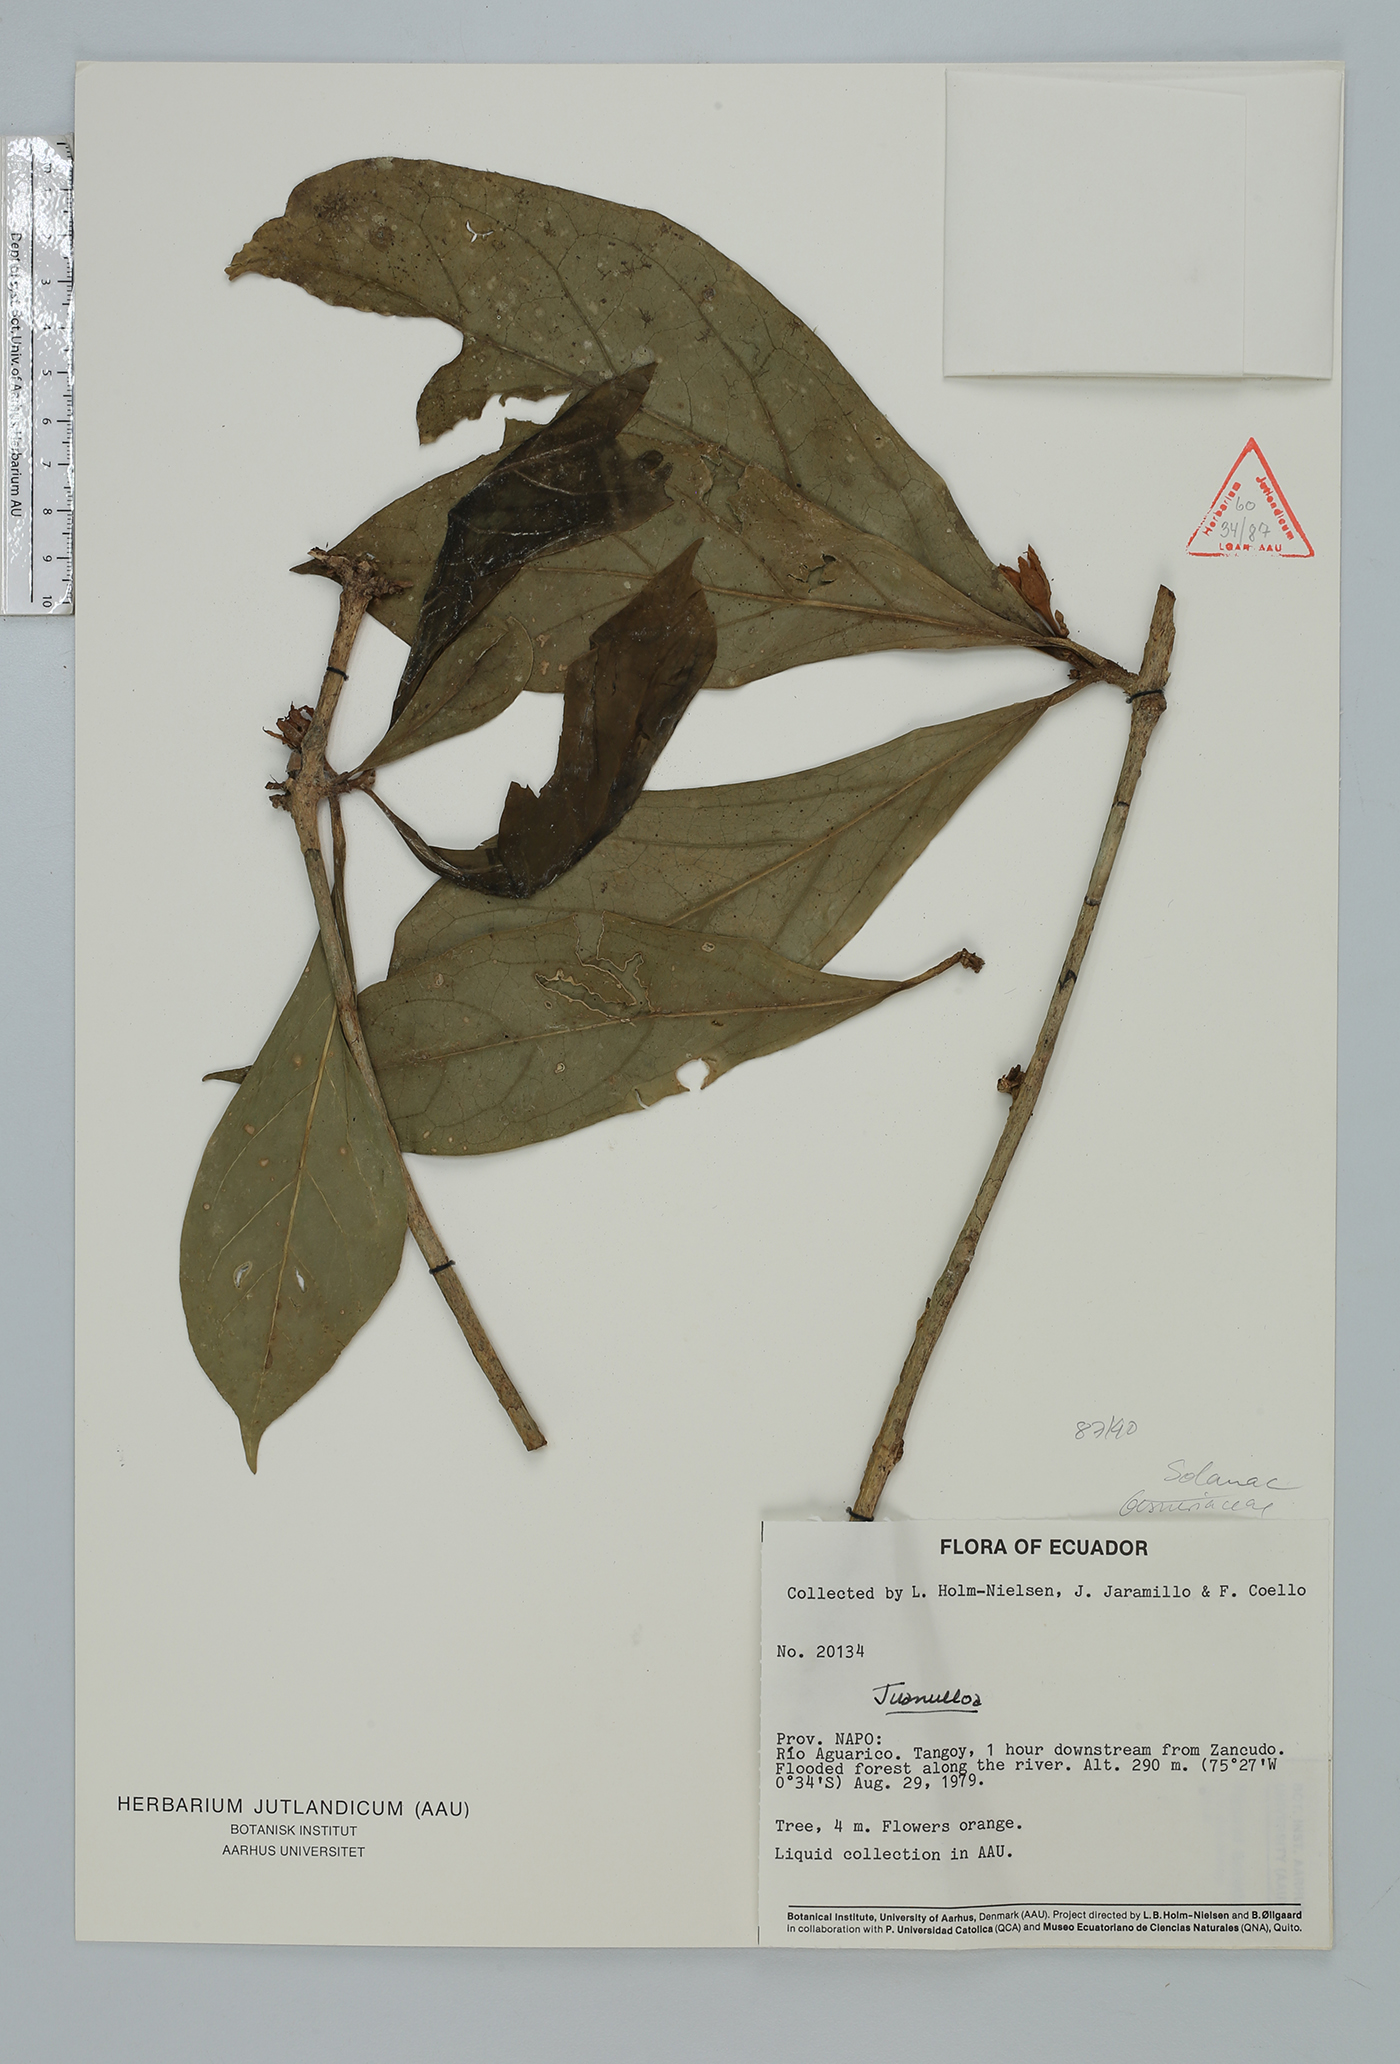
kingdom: Plantae
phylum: Tracheophyta
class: Magnoliopsida
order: Solanales
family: Solanaceae
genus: Hawkesiophyton
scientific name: Hawkesiophyton ochraceum
